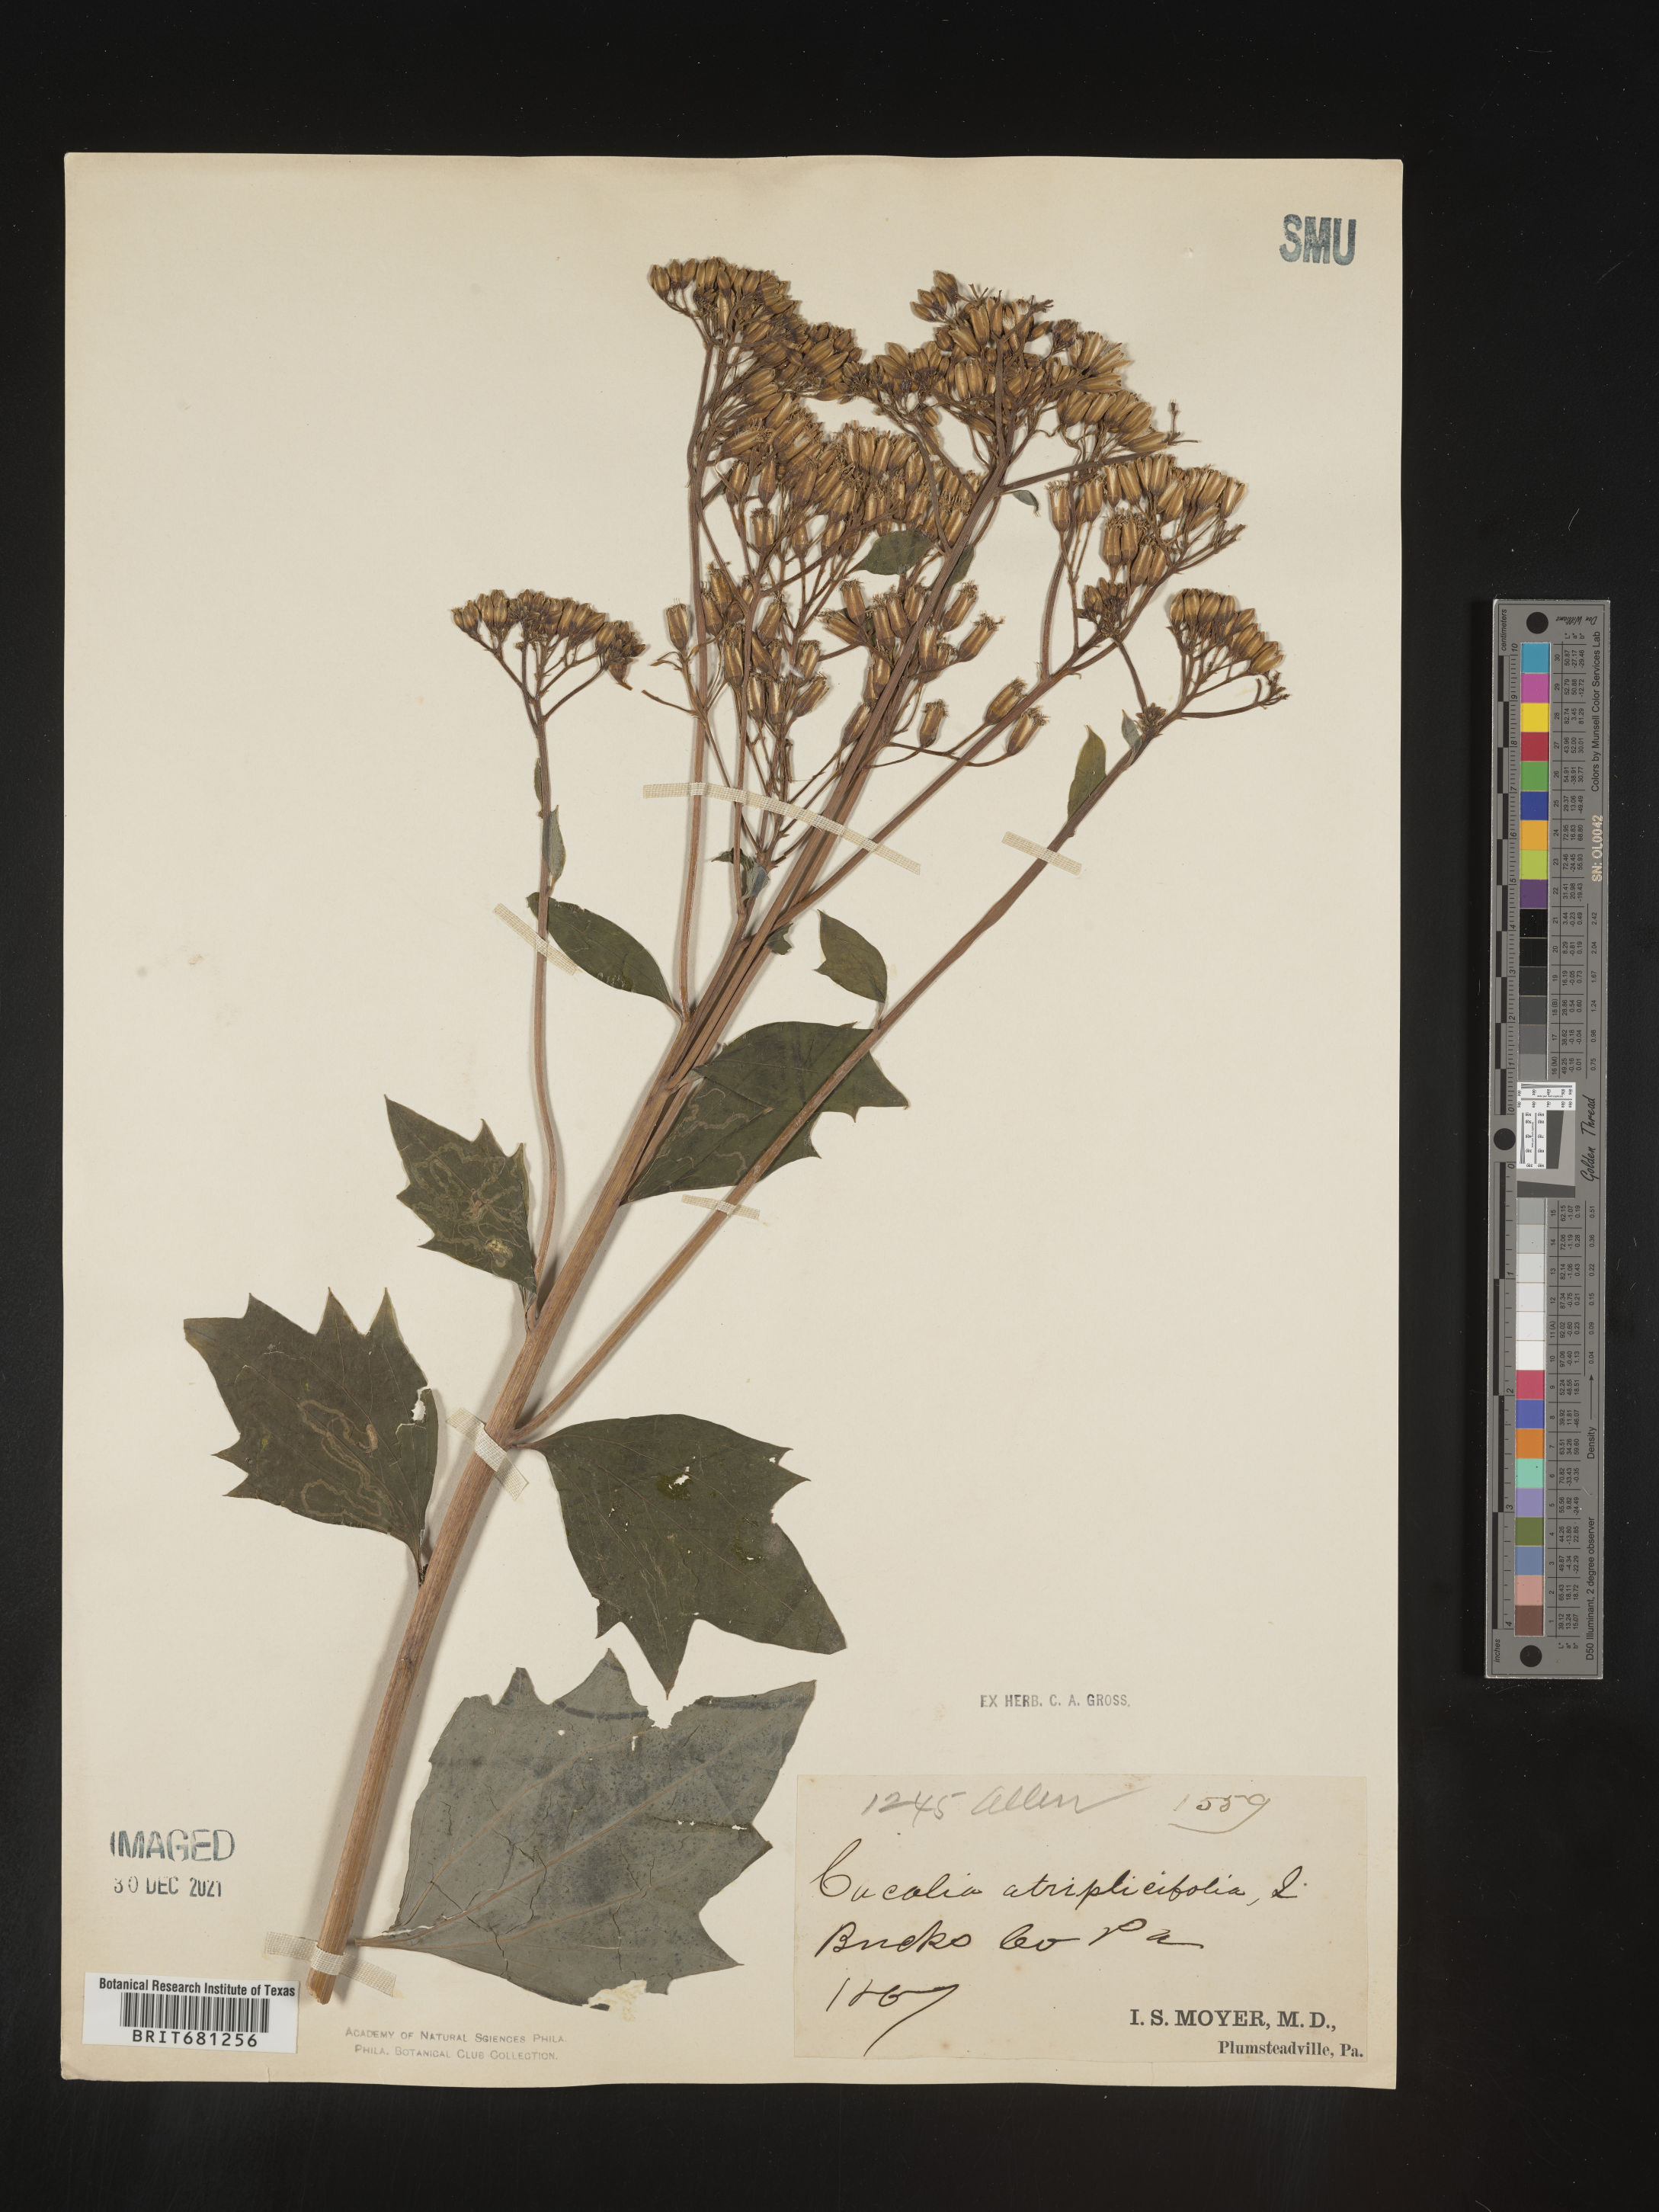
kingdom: Plantae
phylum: Tracheophyta
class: Magnoliopsida
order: Asterales
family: Asteraceae
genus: Arnoglossum
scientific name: Arnoglossum atriplicifolium
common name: Pale indian-plantain
